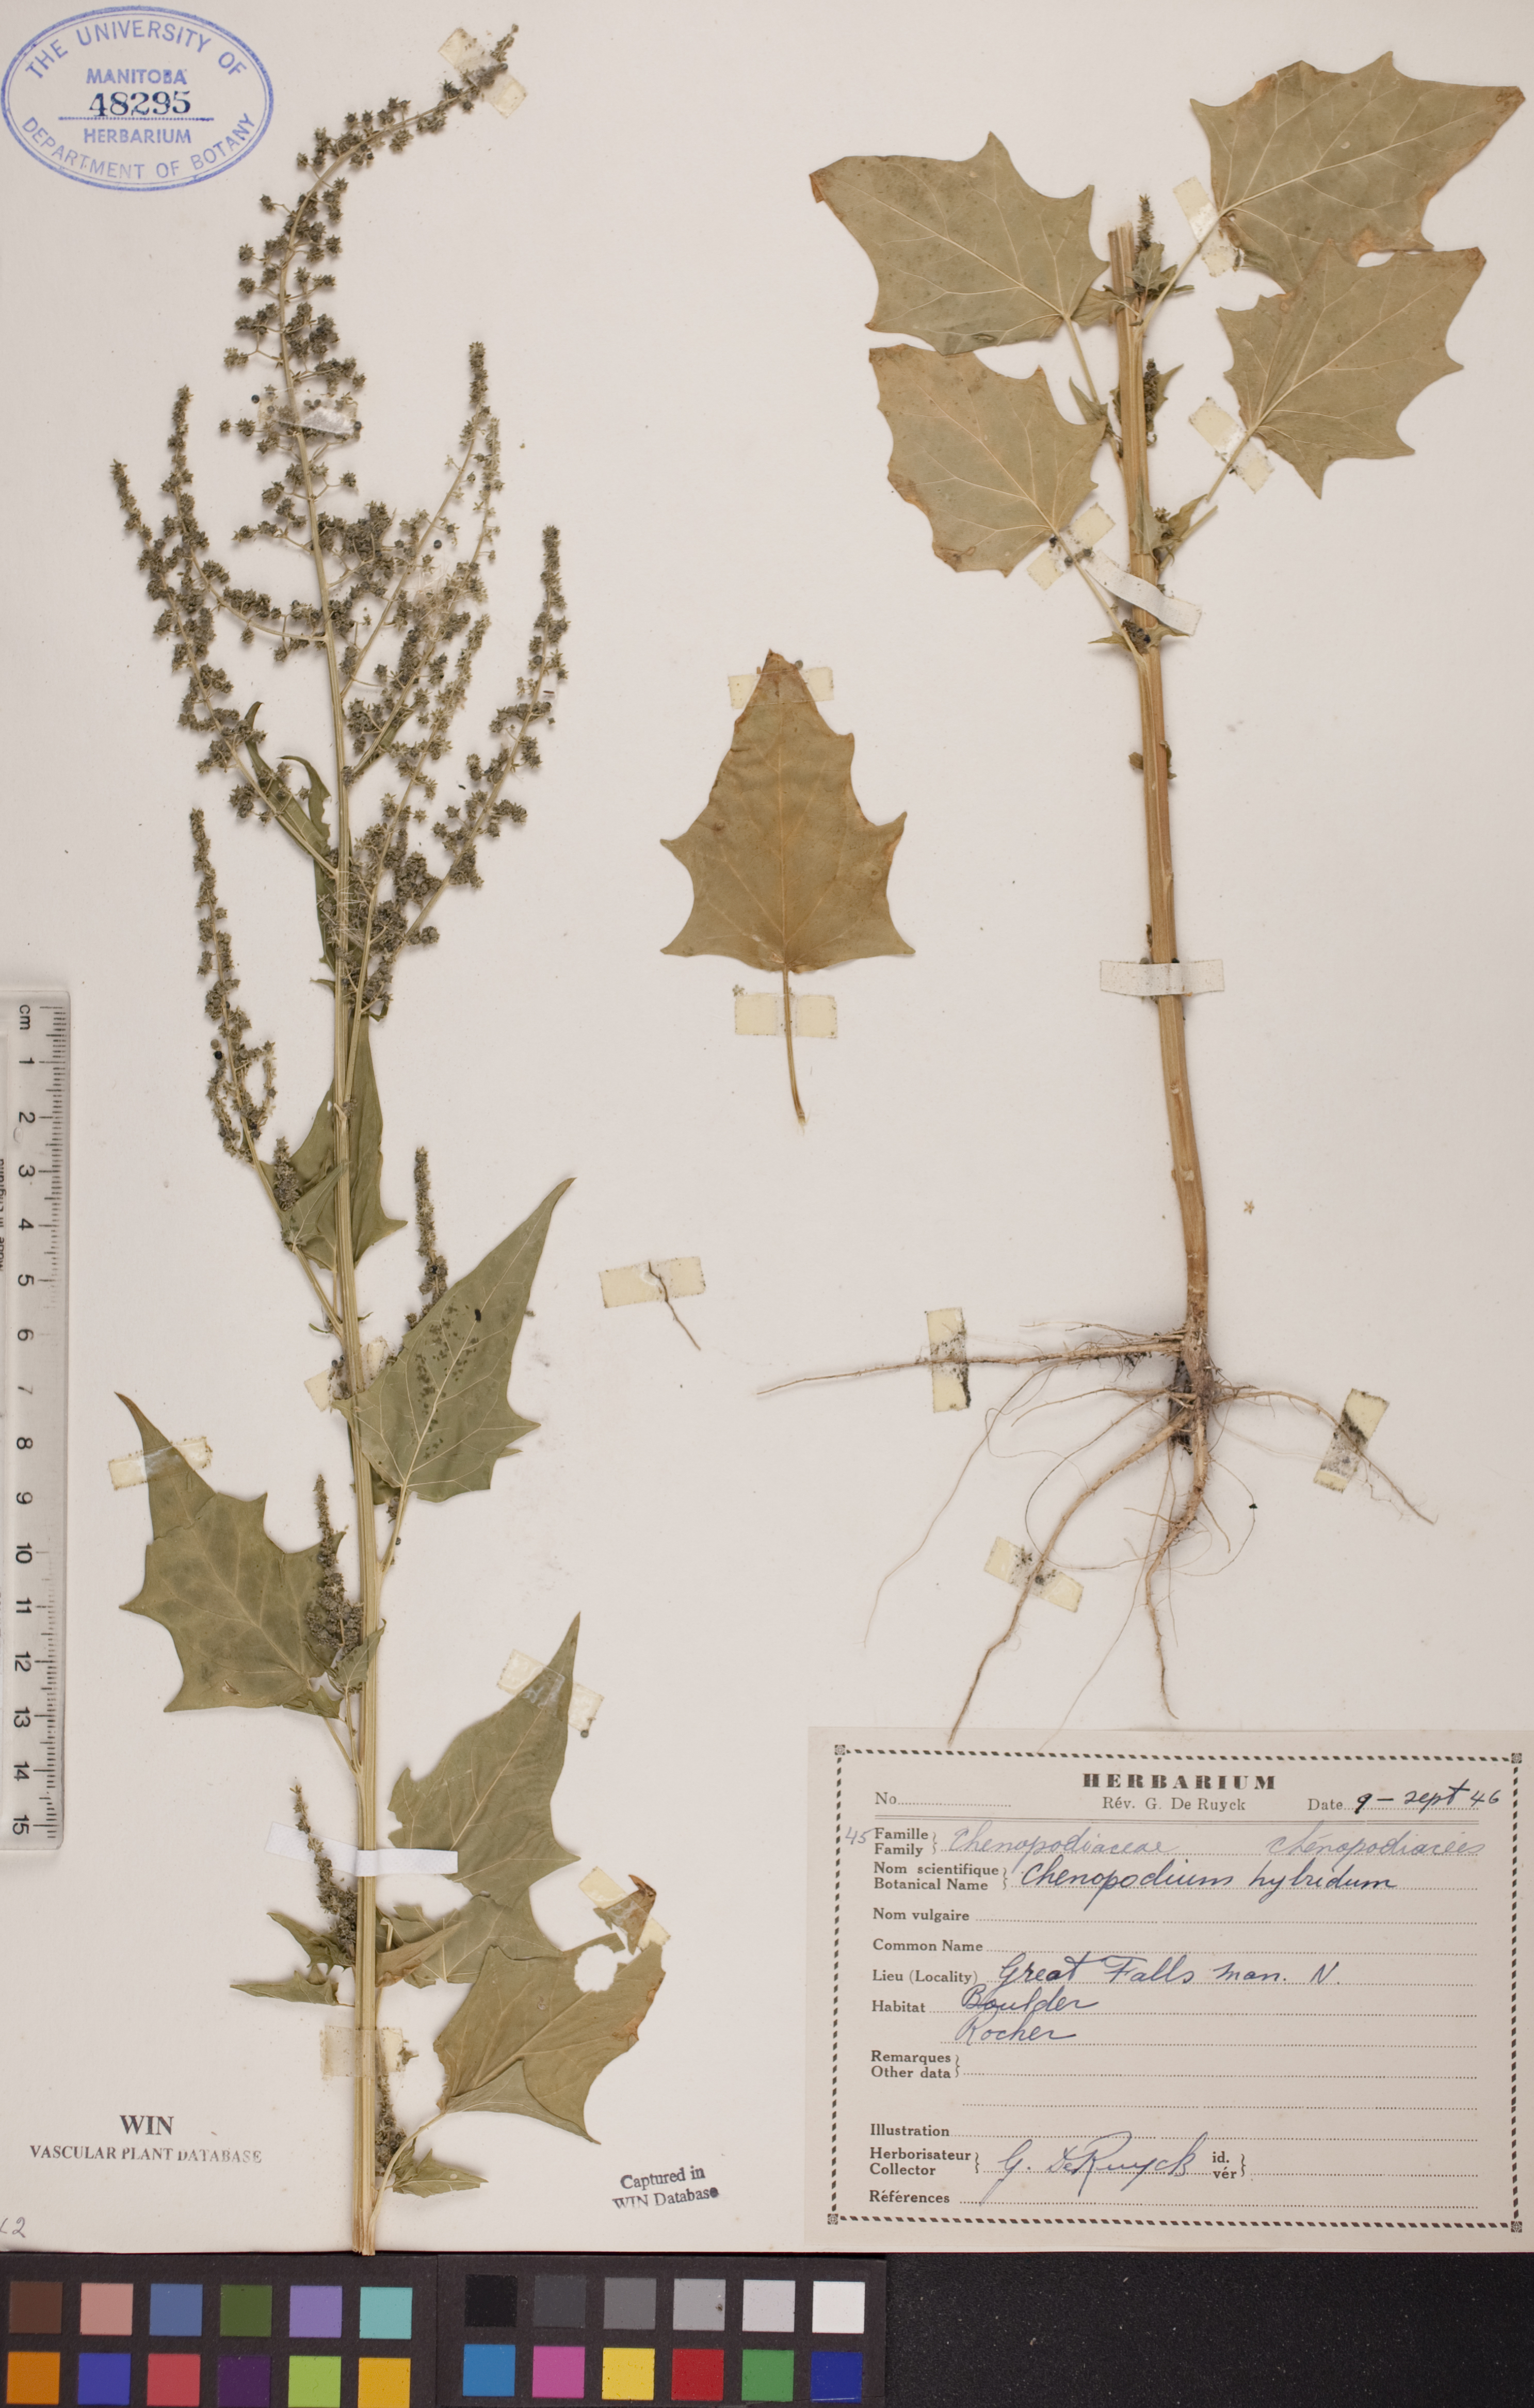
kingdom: Plantae
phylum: Tracheophyta
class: Magnoliopsida
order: Caryophyllales
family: Amaranthaceae
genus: Chenopodiastrum
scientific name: Chenopodiastrum hybridum
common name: Mapleleaf goosefoot
